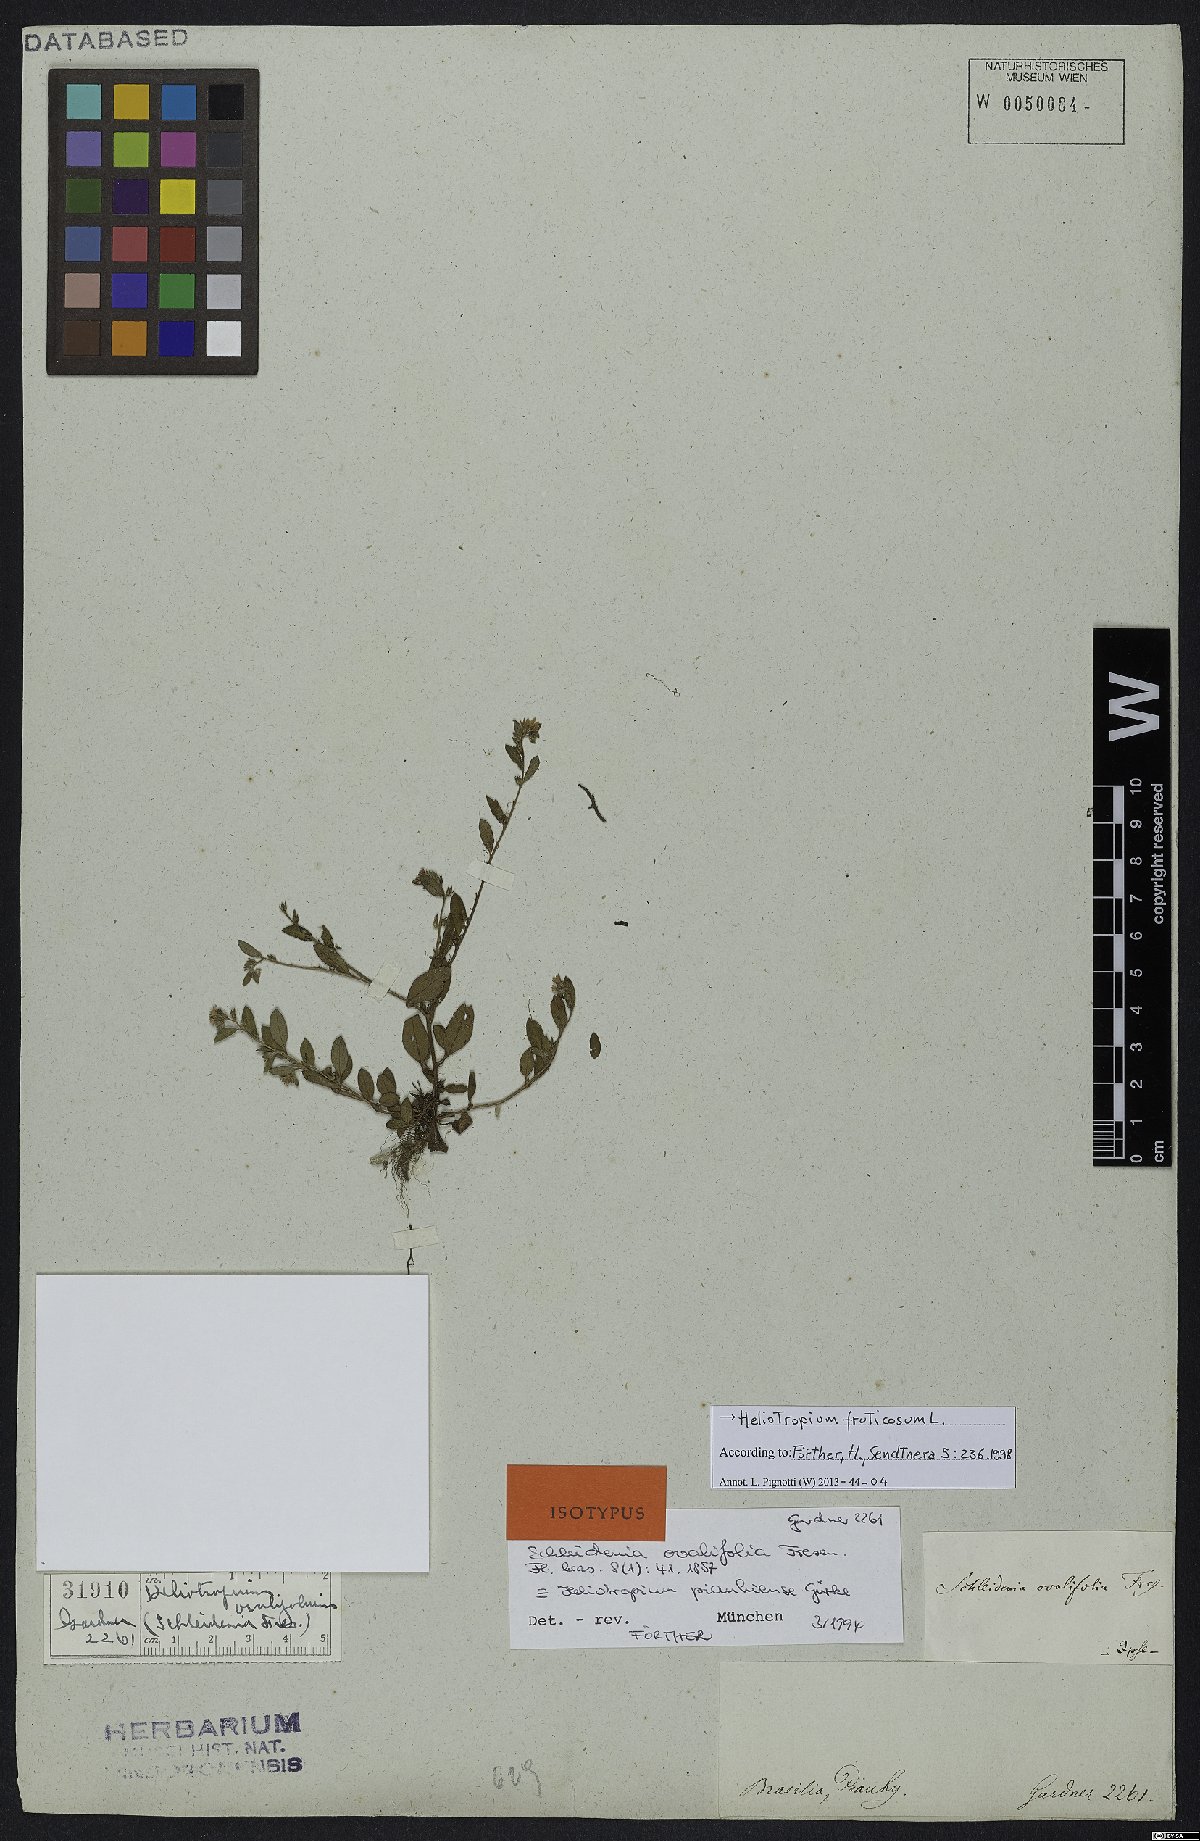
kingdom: Plantae
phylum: Tracheophyta
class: Magnoliopsida
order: Boraginales
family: Heliotropiaceae
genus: Euploca
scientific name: Euploca fruticosa
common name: Key west heliotrope
